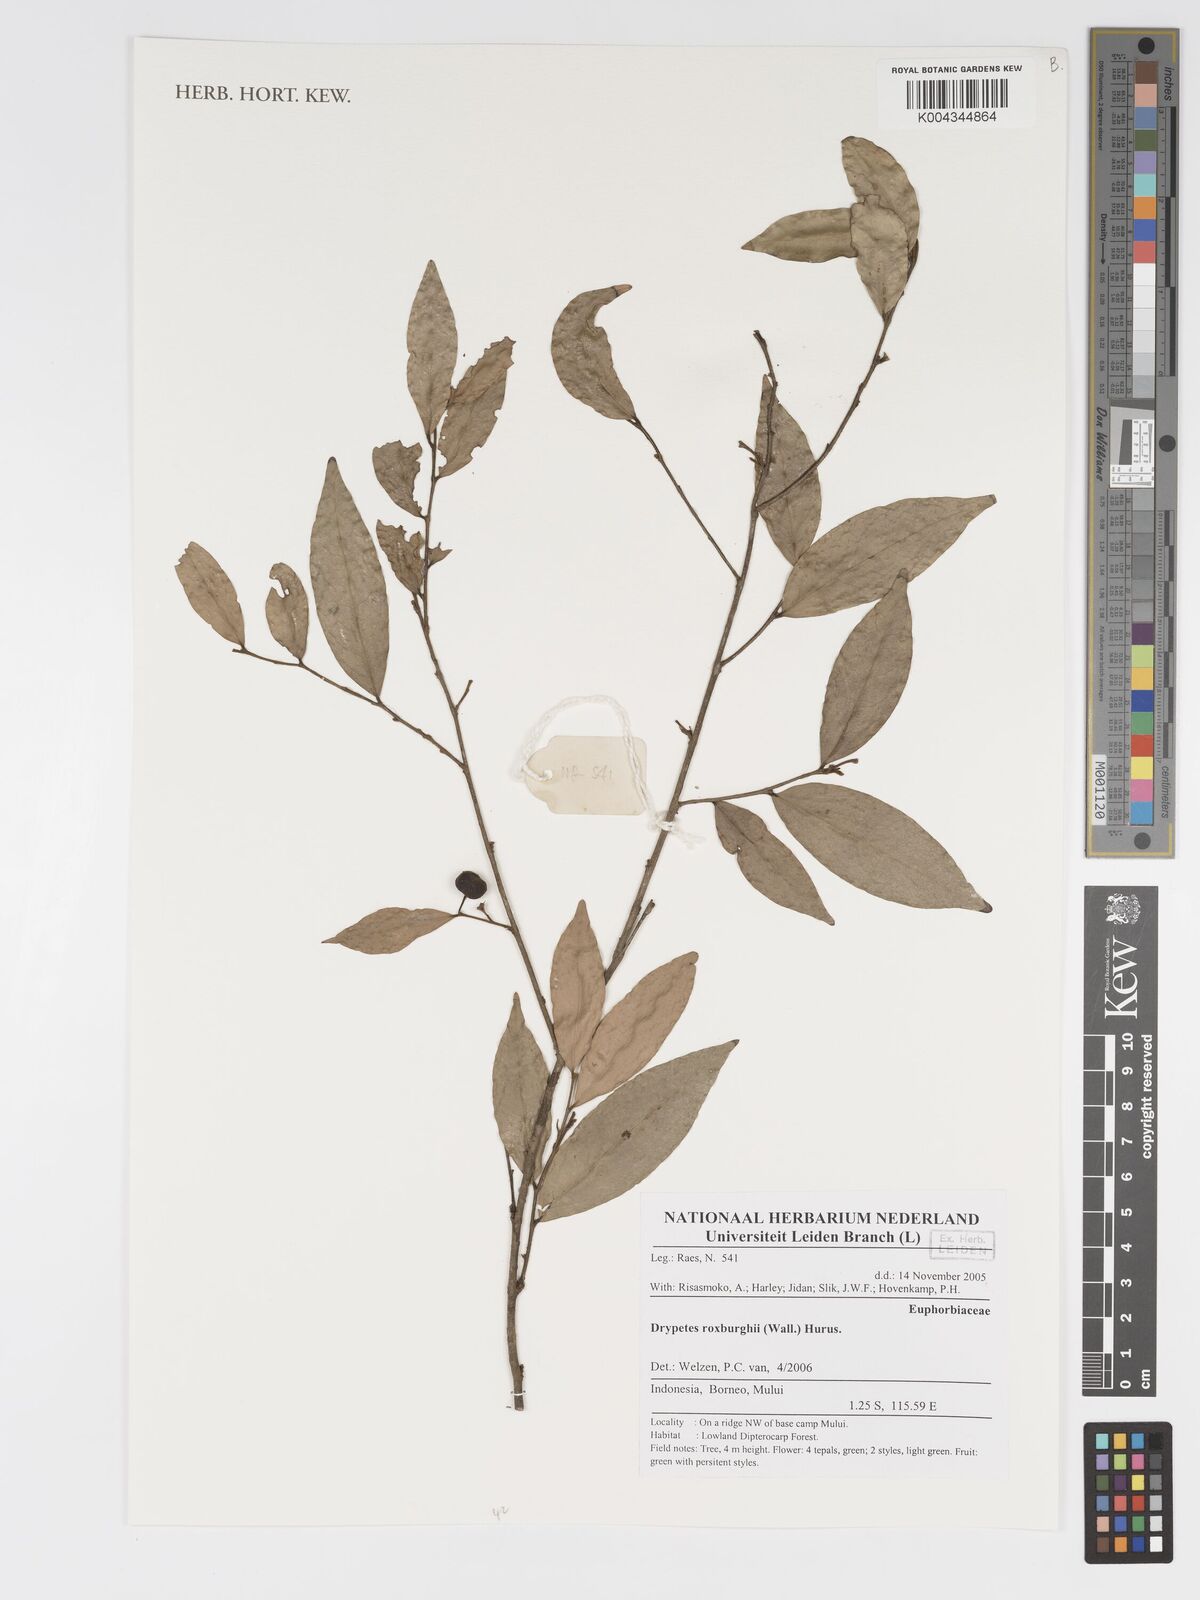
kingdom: Plantae
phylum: Tracheophyta
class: Magnoliopsida
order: Malpighiales
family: Putranjivaceae
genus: Putranjiva
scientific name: Putranjiva roxburghii
